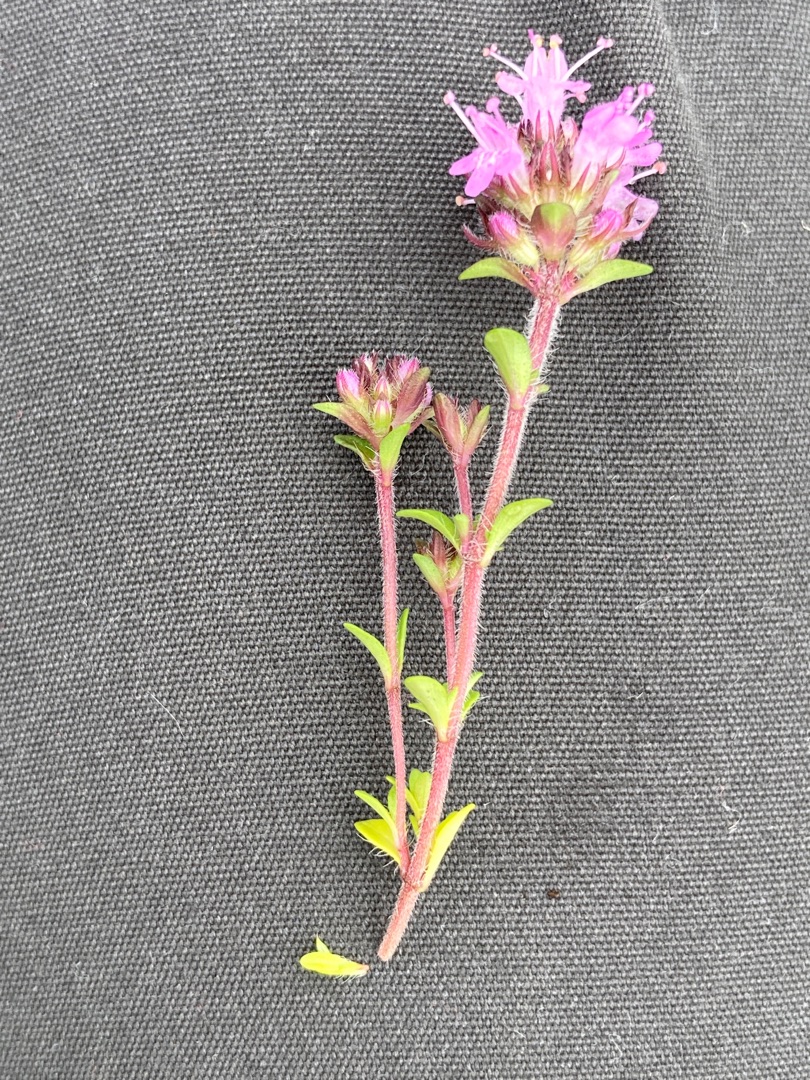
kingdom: Plantae
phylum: Tracheophyta
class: Magnoliopsida
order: Lamiales
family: Lamiaceae
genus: Thymus
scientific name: Thymus serpyllum
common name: Smalbladet timian
